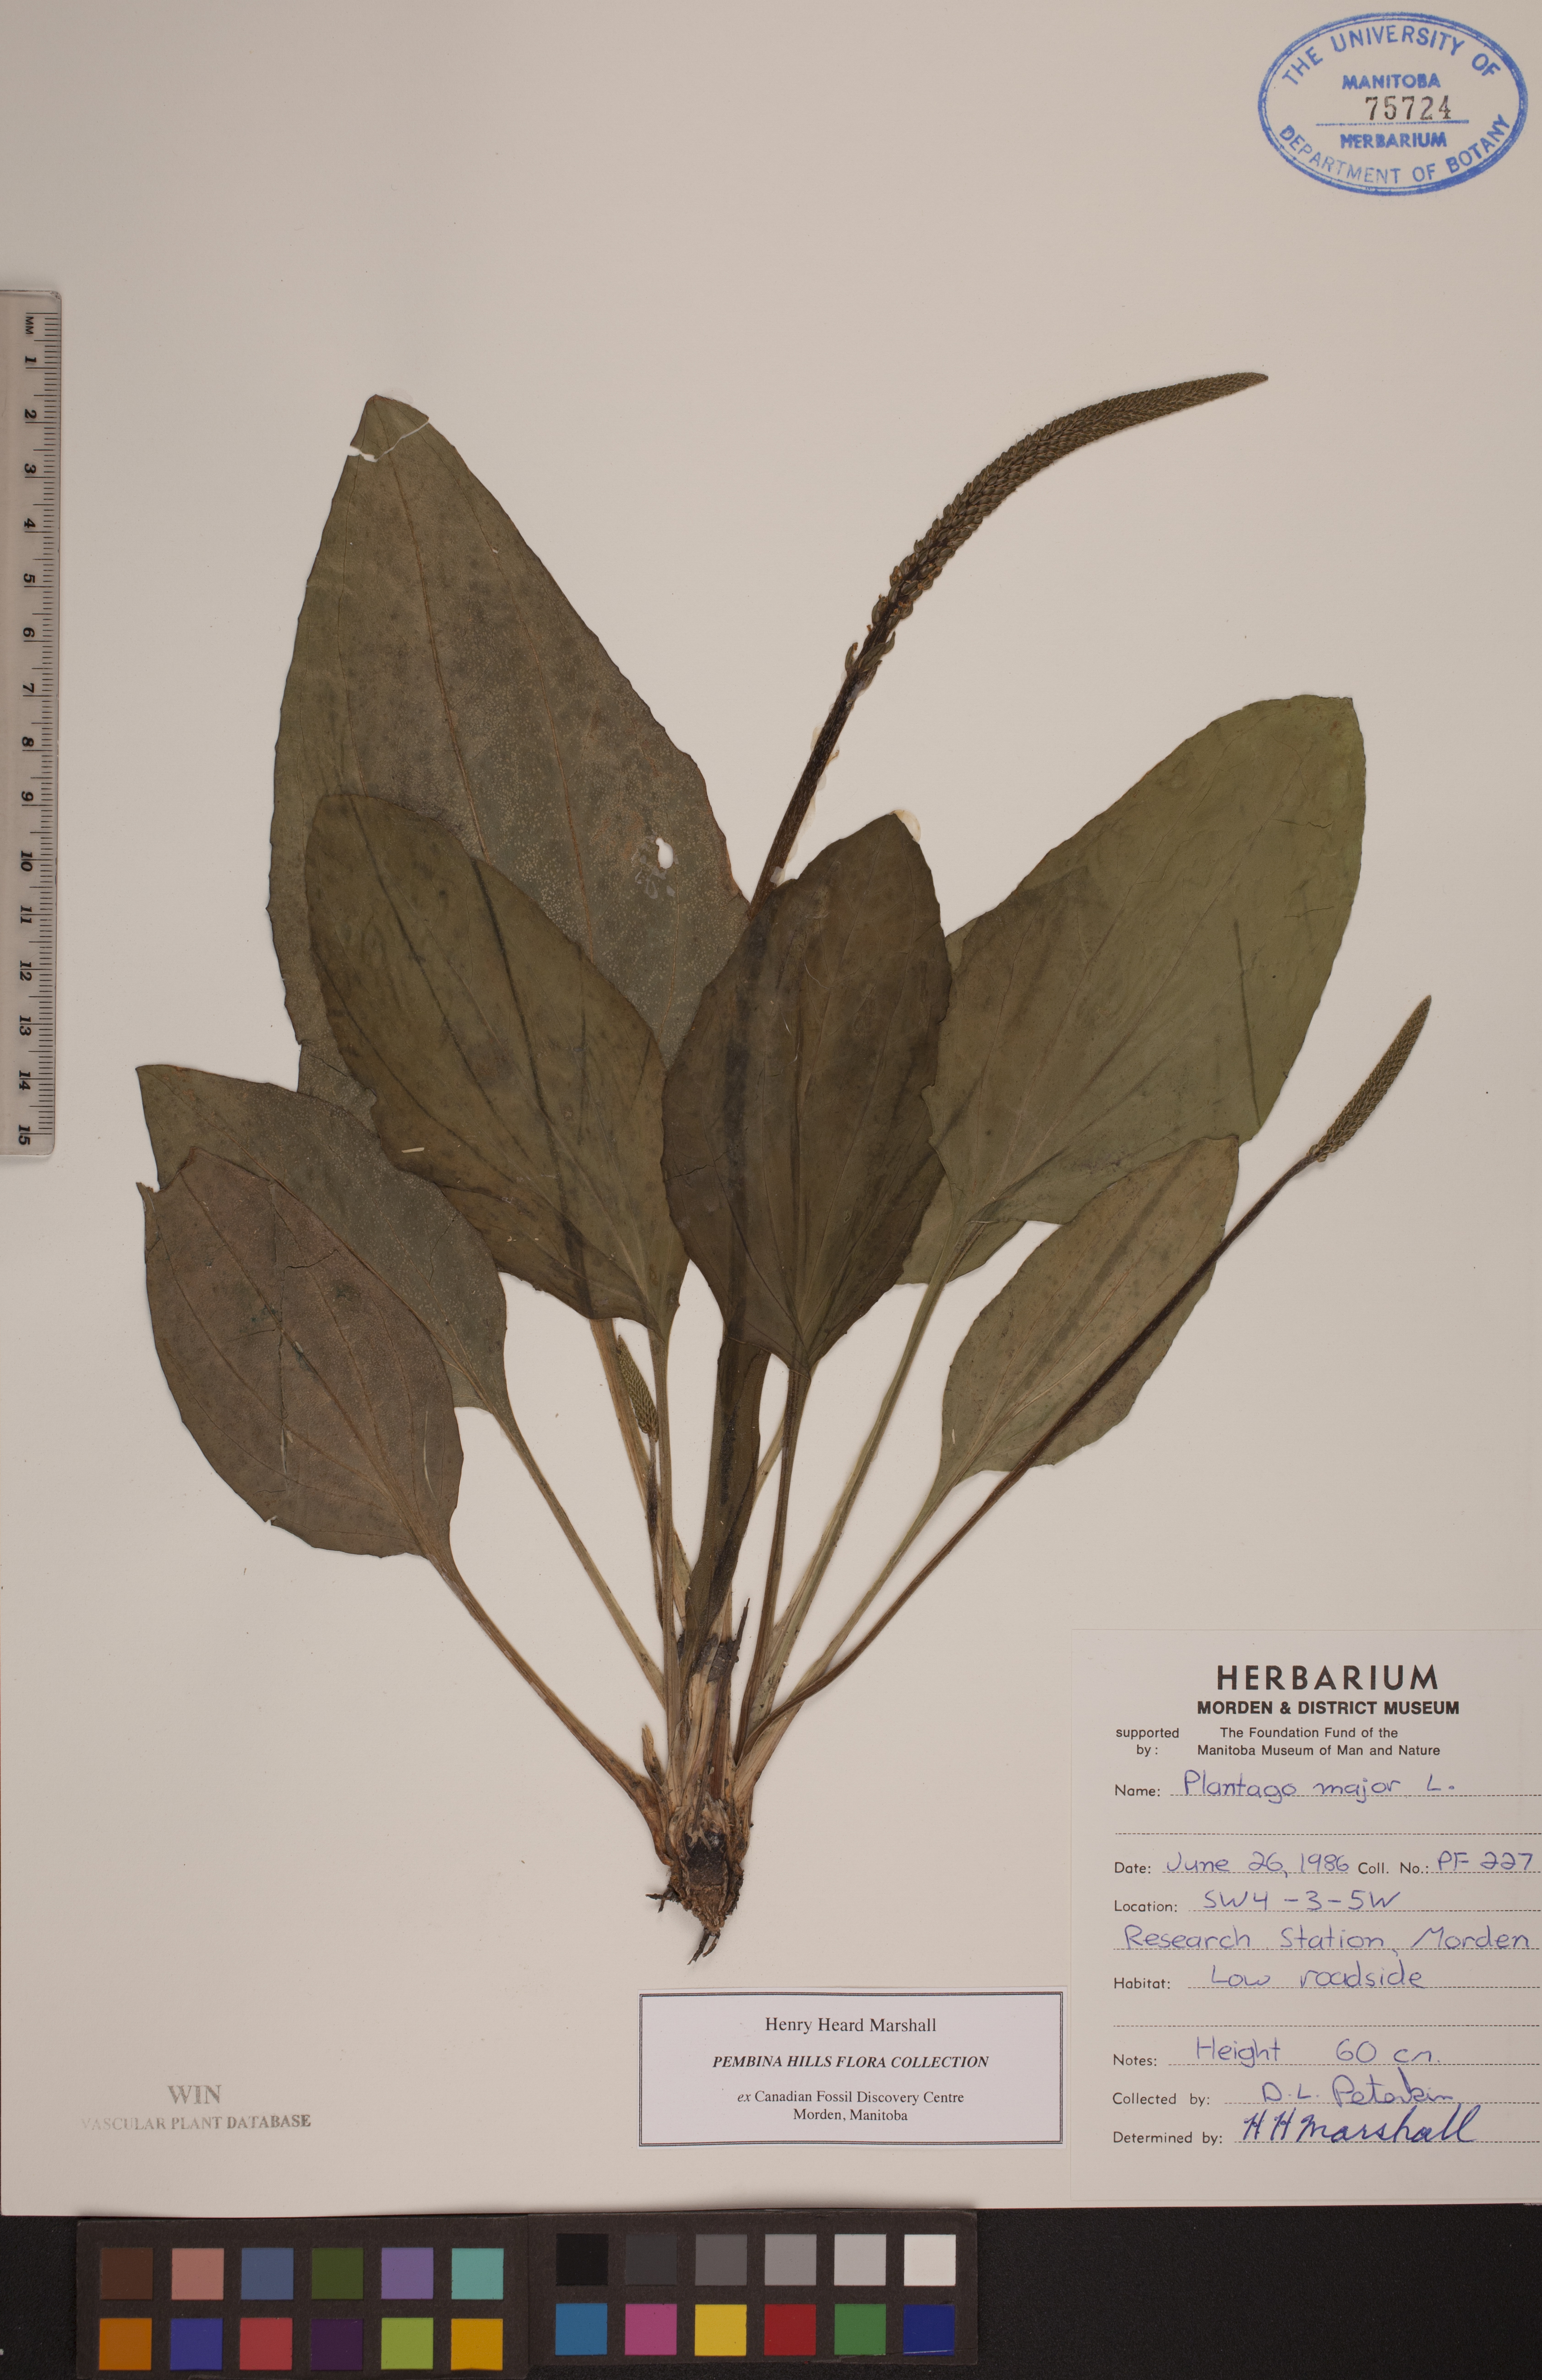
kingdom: Plantae
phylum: Tracheophyta
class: Magnoliopsida
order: Lamiales
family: Plantaginaceae
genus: Plantago
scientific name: Plantago major
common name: Common plantain
